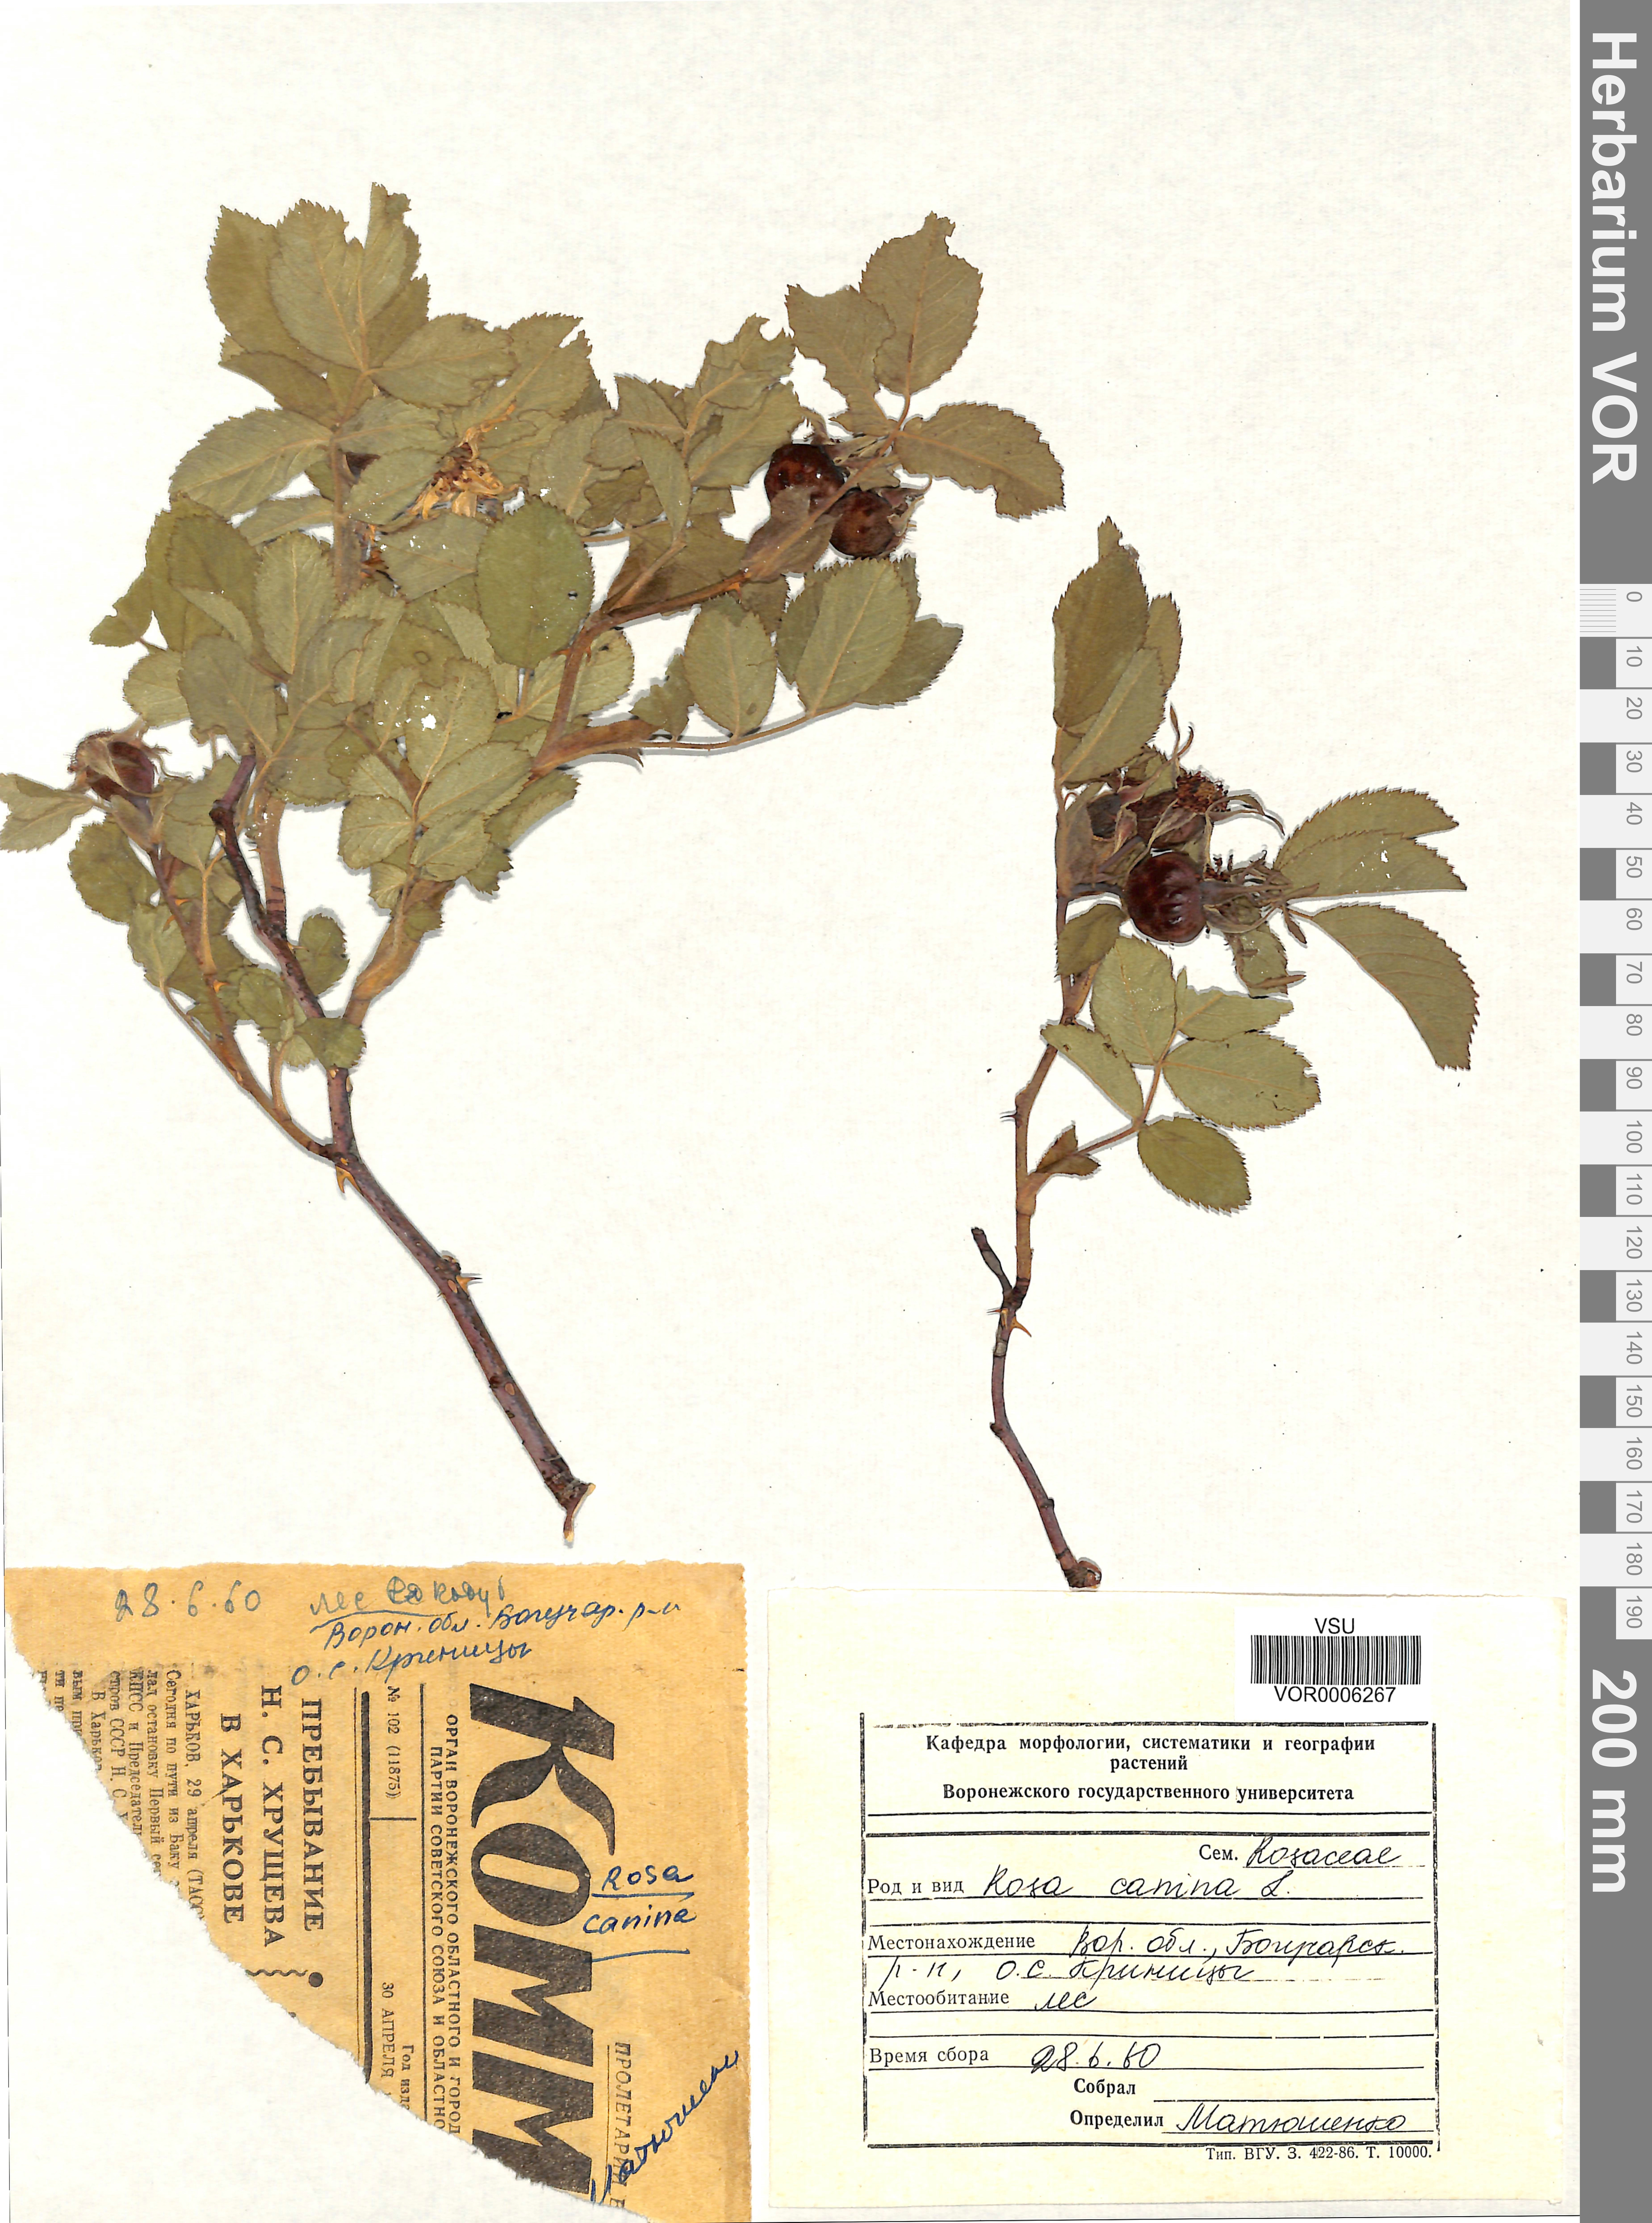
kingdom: Plantae
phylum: Tracheophyta
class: Magnoliopsida
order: Rosales
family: Rosaceae
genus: Rosa
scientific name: Rosa canina
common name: Dog rose
